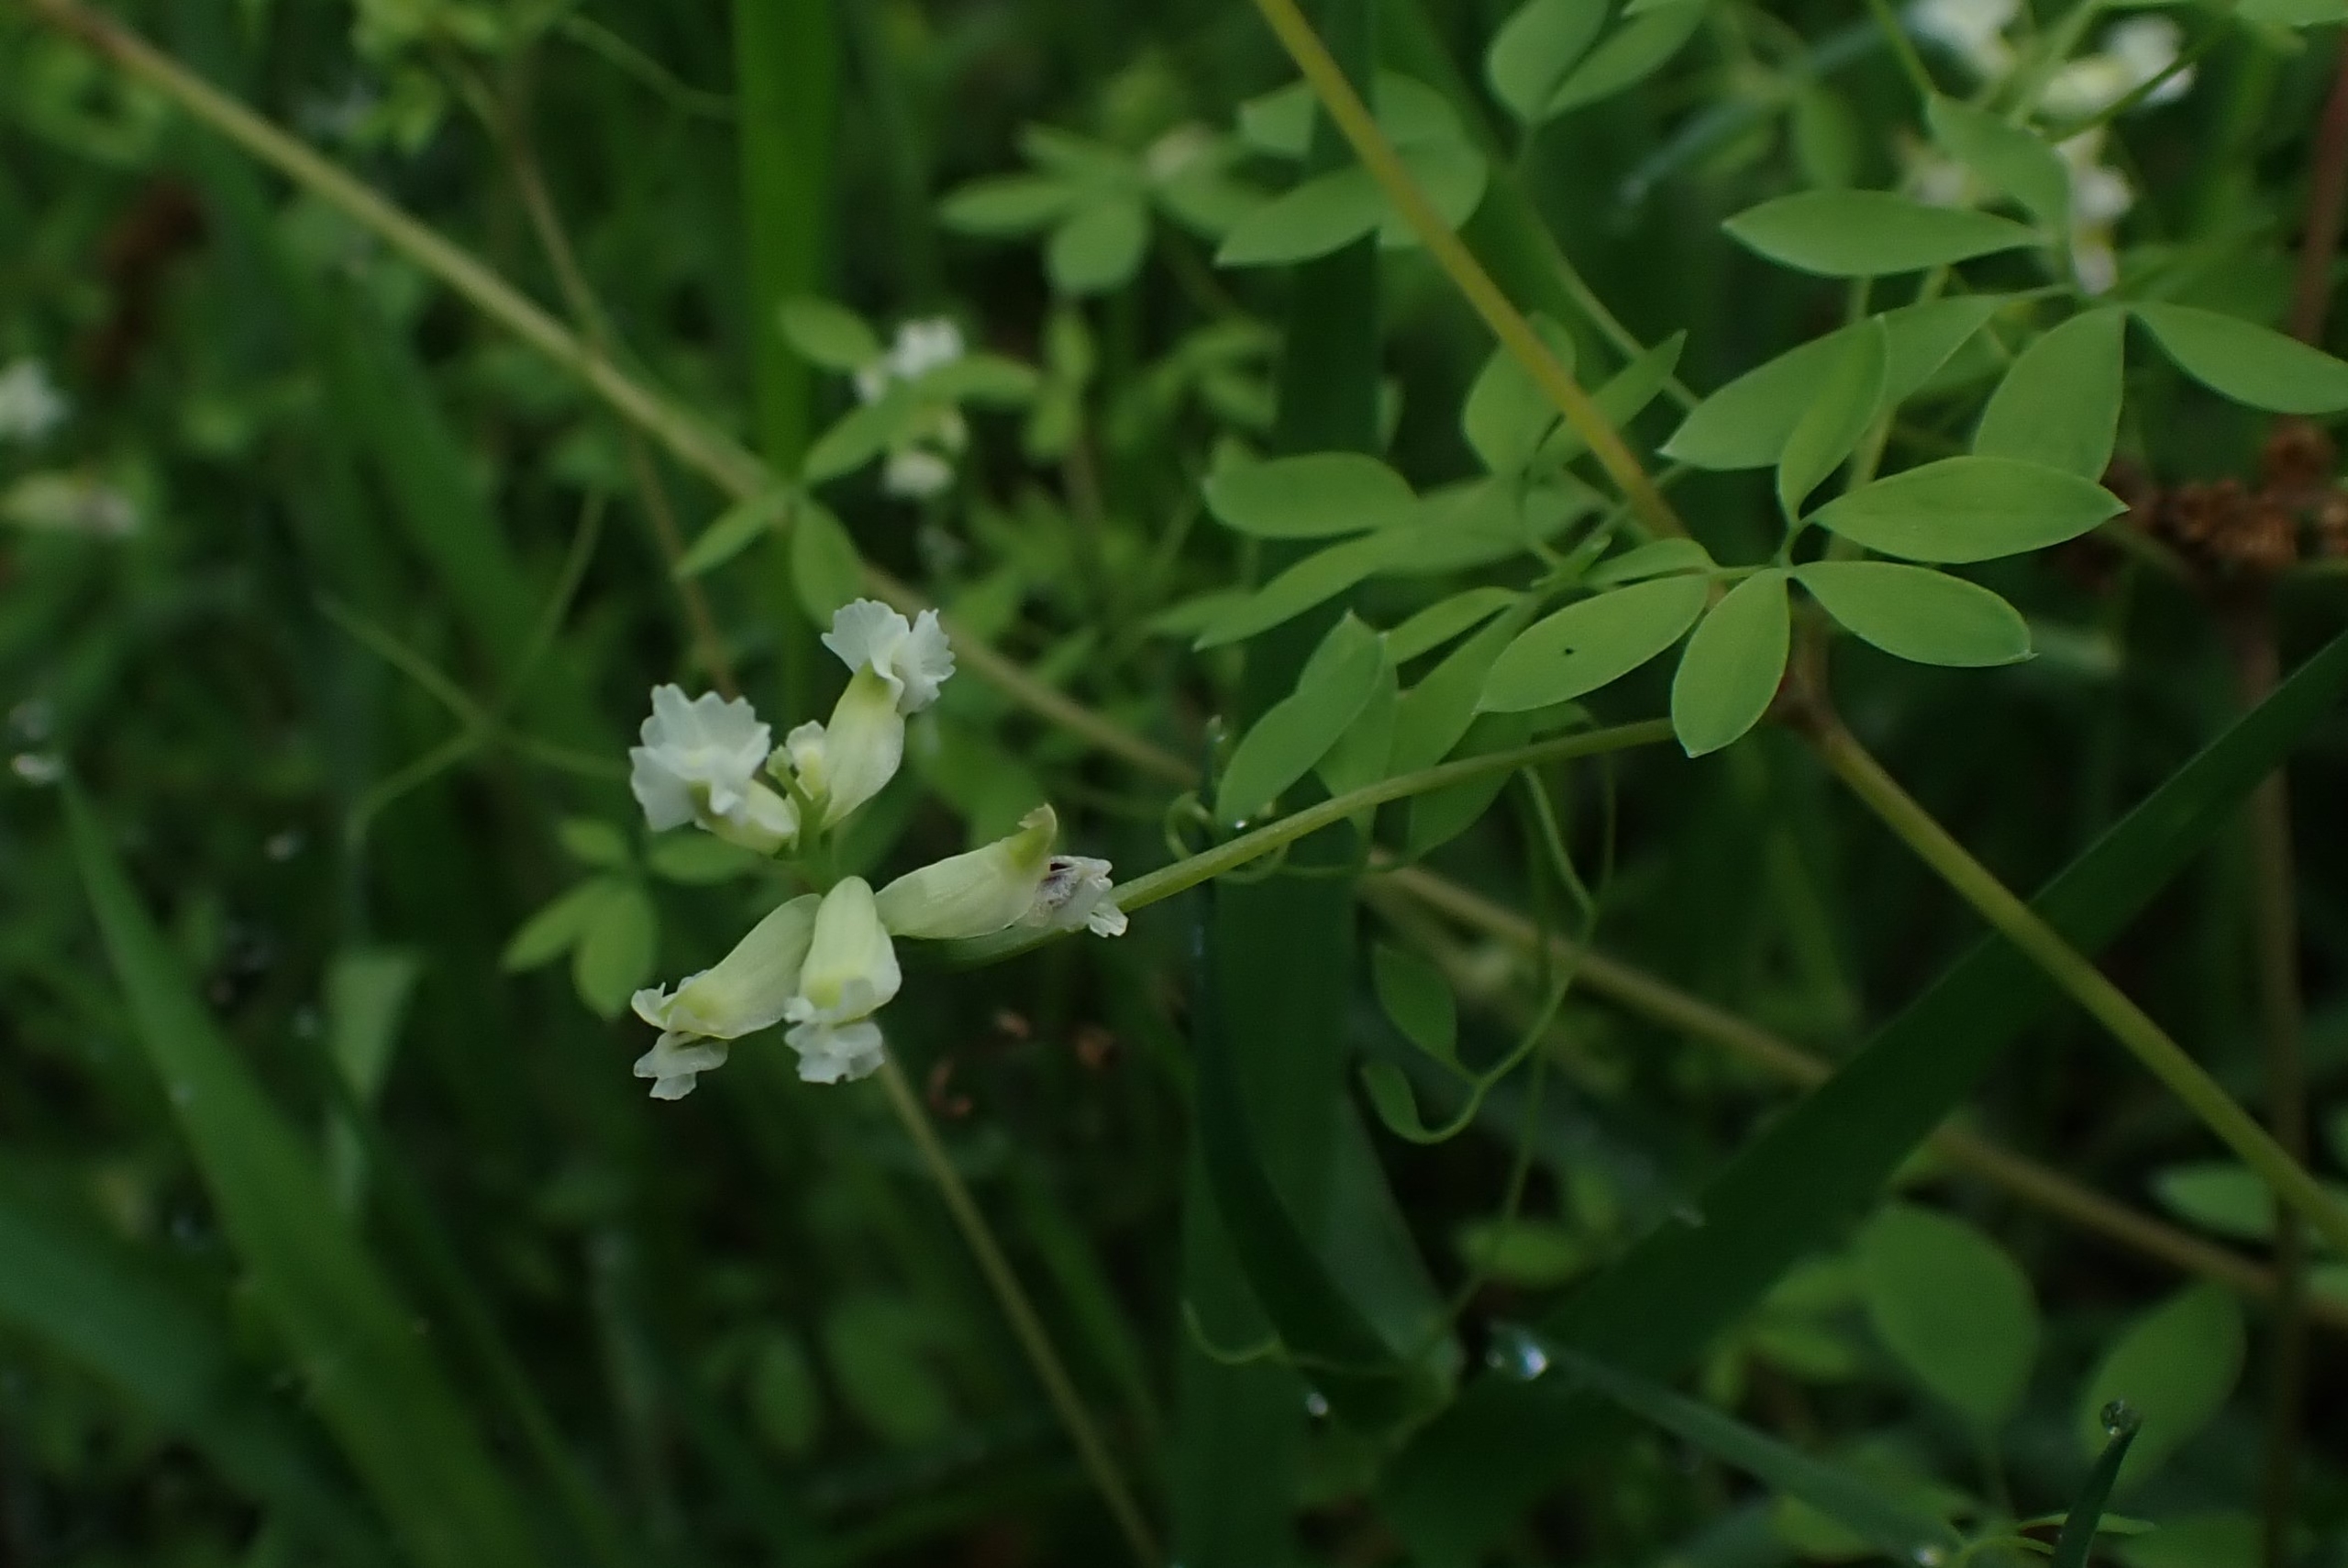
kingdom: Plantae
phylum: Tracheophyta
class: Magnoliopsida
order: Ranunculales
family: Papaveraceae
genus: Ceratocapnos
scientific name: Ceratocapnos claviculata
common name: Klatrende lærkespore
